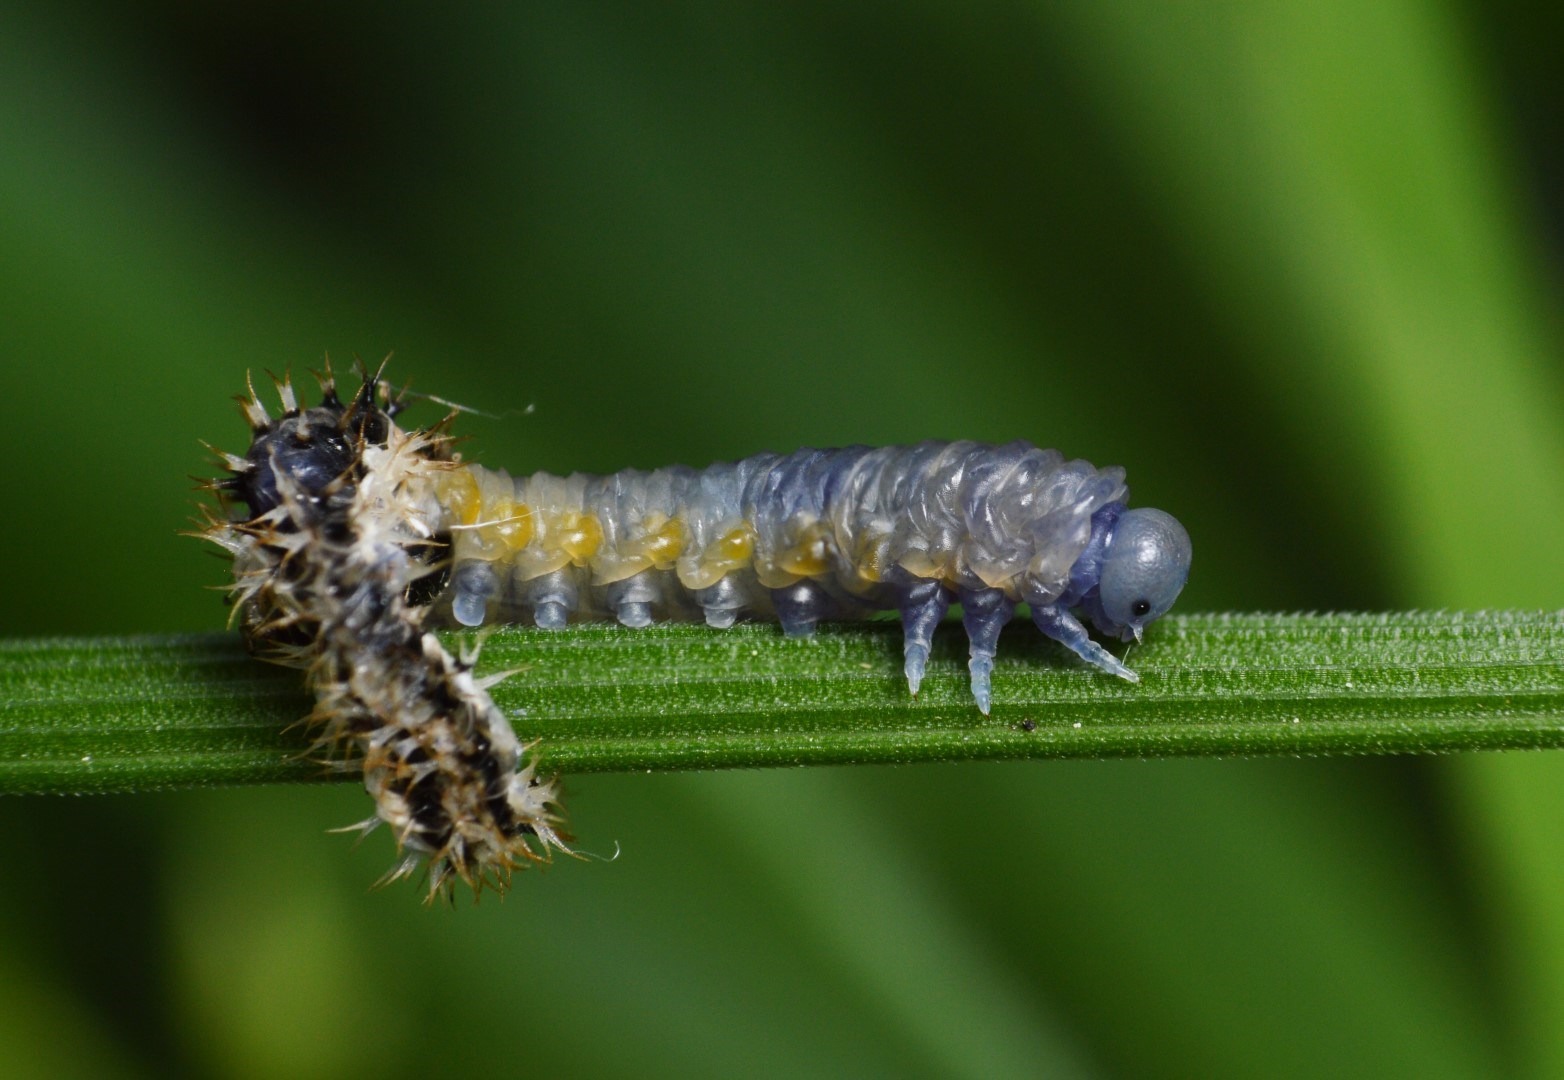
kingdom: Animalia
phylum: Arthropoda
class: Insecta
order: Hymenoptera
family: Tenthredinidae
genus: Eupareophora
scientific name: Eupareophora exarmata
